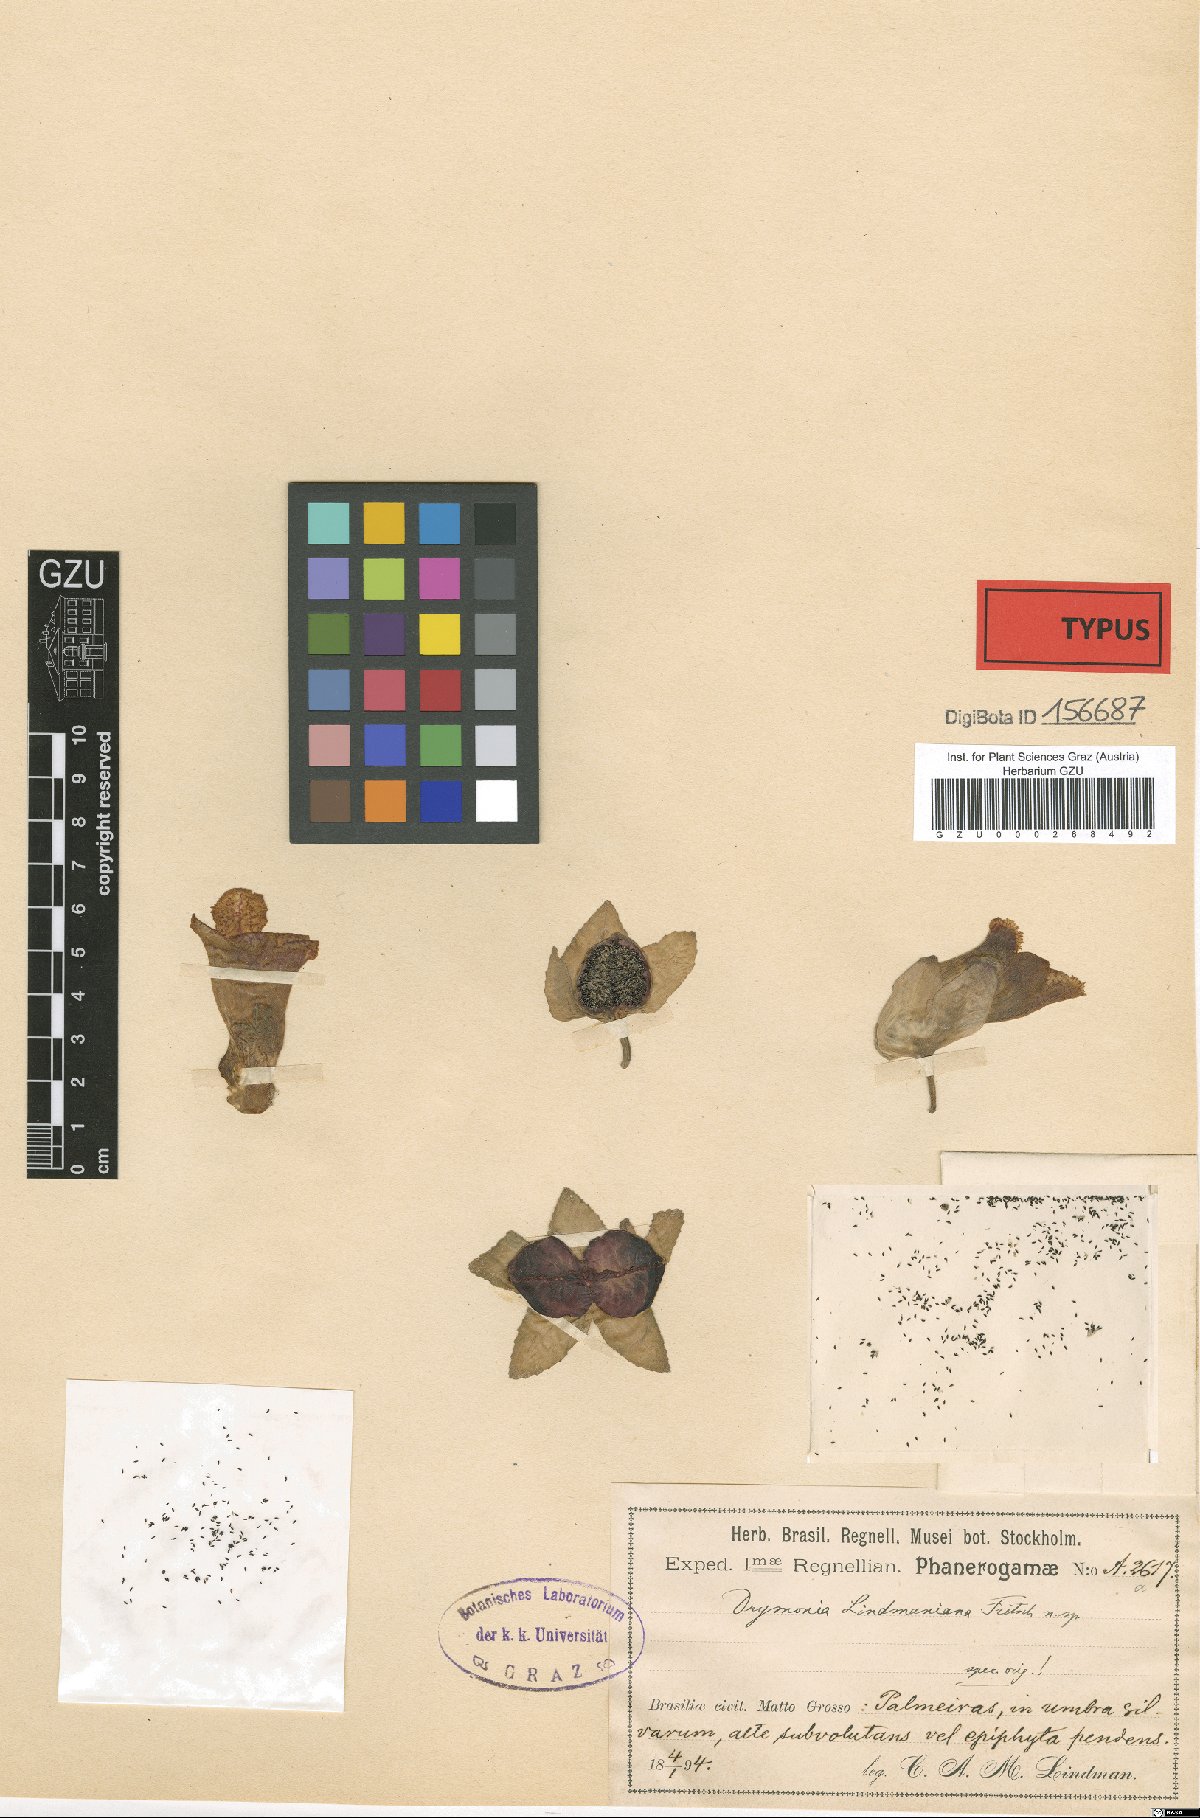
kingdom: Plantae
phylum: Tracheophyta
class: Magnoliopsida
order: Lamiales
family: Gesneriaceae
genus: Drymonia
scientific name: Drymonia serrulata
